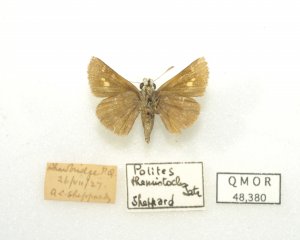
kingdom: Animalia
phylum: Arthropoda
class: Insecta
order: Lepidoptera
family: Hesperiidae
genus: Polites
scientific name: Polites themistocles
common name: Tawny-edged Skipper
